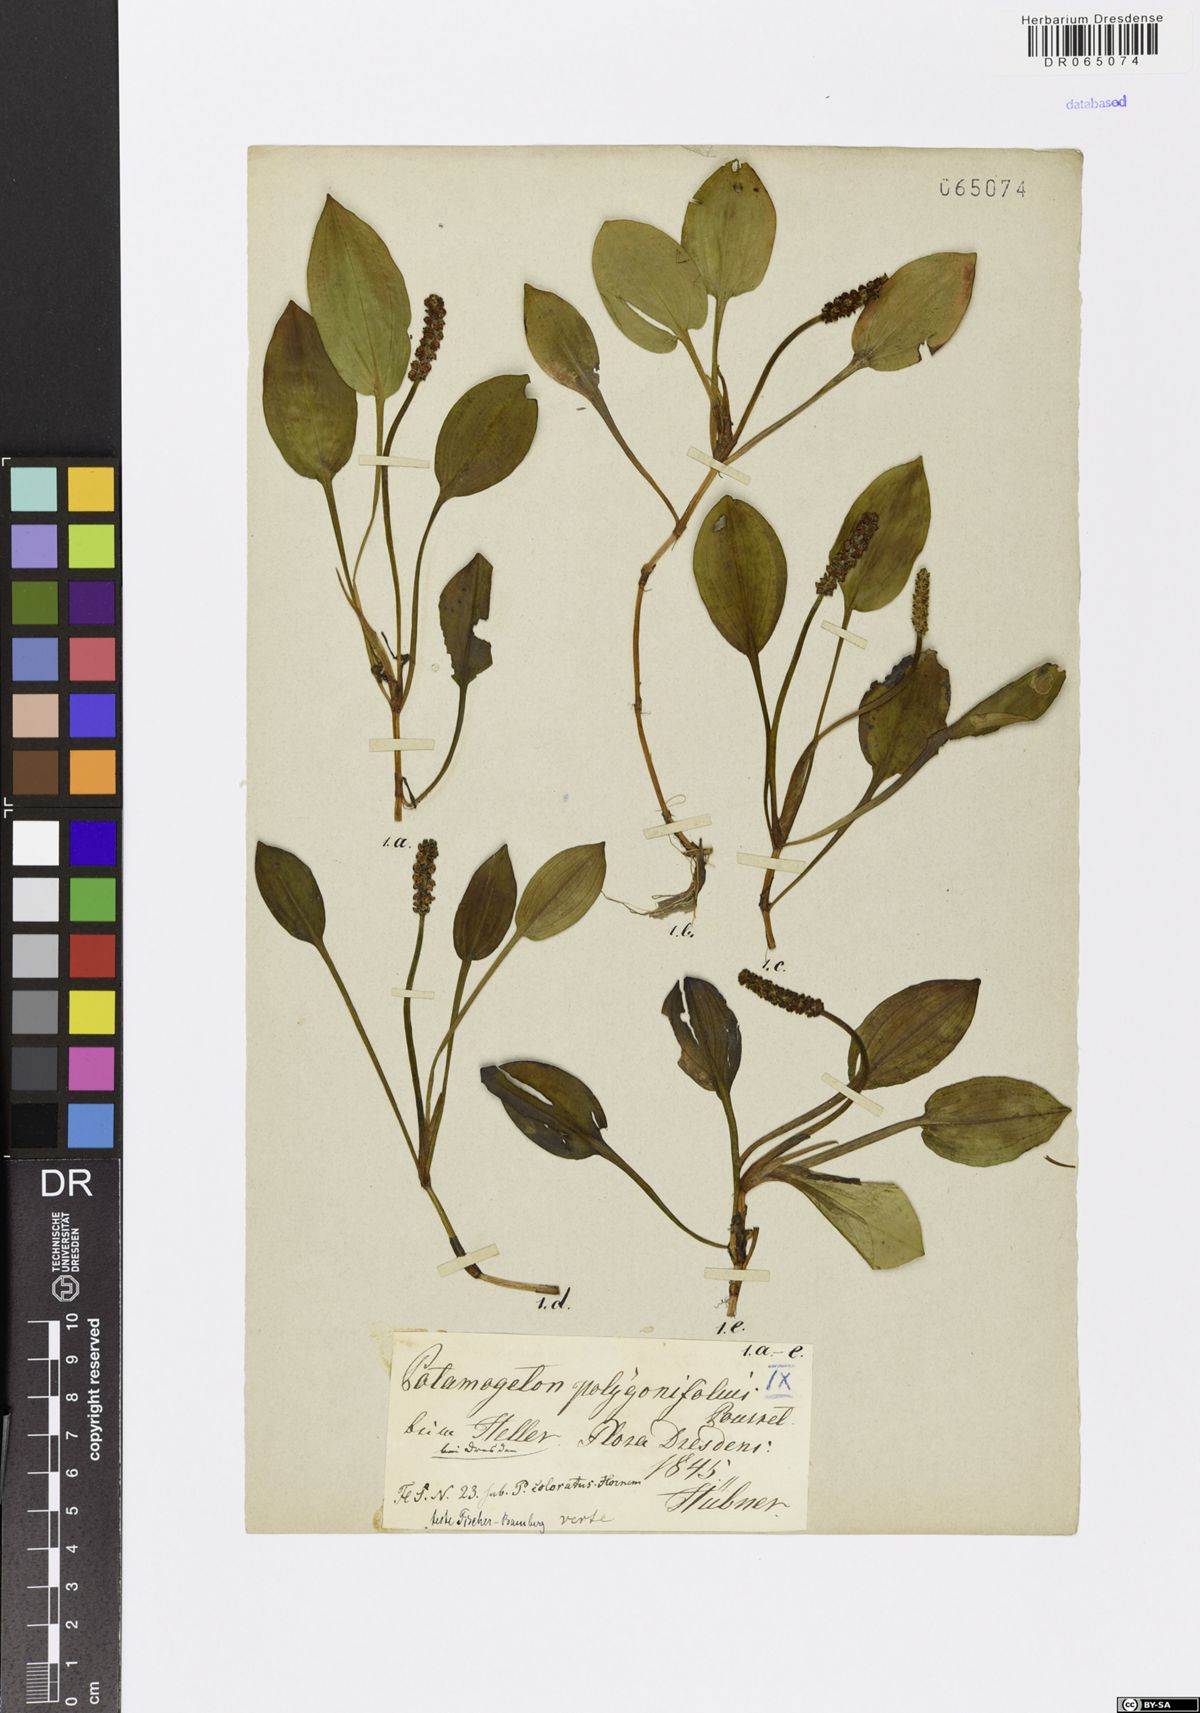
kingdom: Plantae
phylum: Tracheophyta
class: Liliopsida
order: Alismatales
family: Potamogetonaceae
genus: Potamogeton
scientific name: Potamogeton polygonifolius
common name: Bog pondweed
